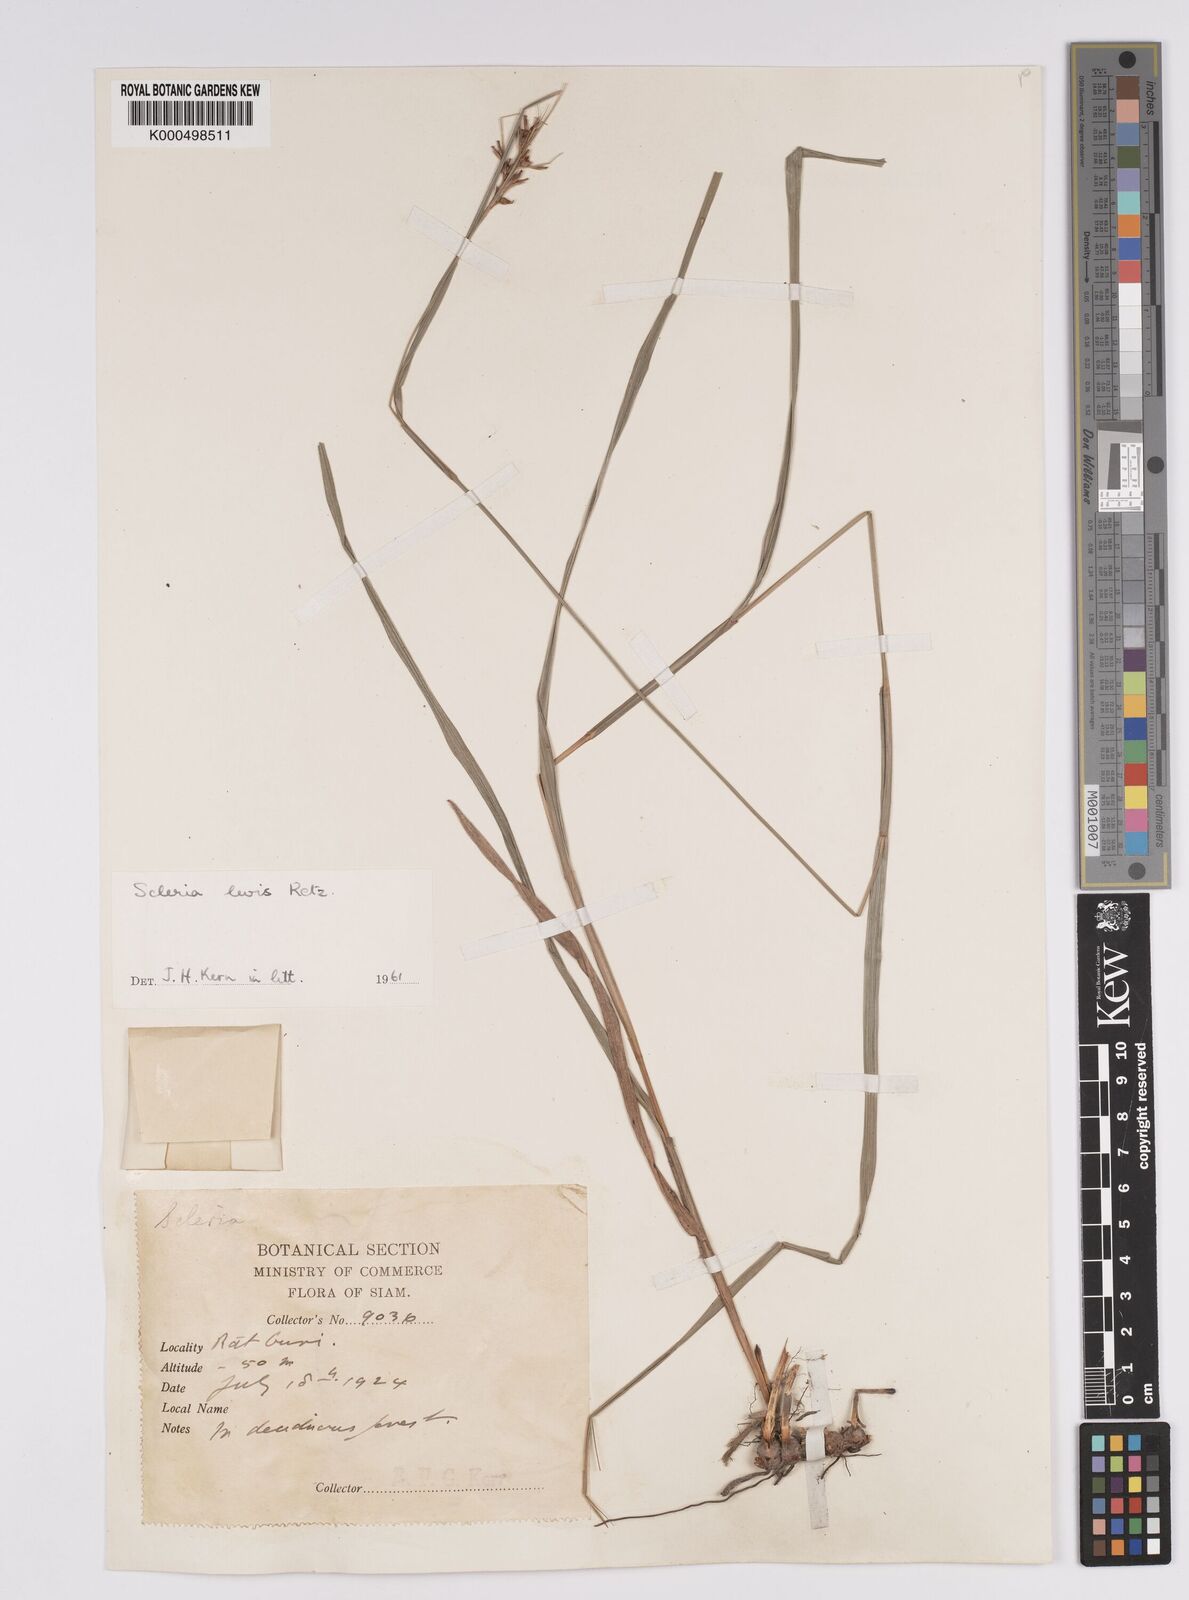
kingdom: Plantae
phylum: Tracheophyta
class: Liliopsida
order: Poales
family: Cyperaceae
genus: Scleria
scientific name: Scleria levis
